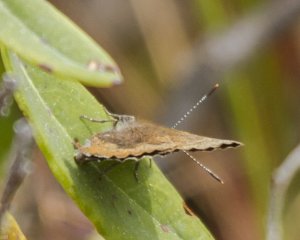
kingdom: Animalia
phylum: Arthropoda
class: Insecta
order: Lepidoptera
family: Lycaenidae
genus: Incisalia
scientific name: Incisalia irioides
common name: Brown Elfin
